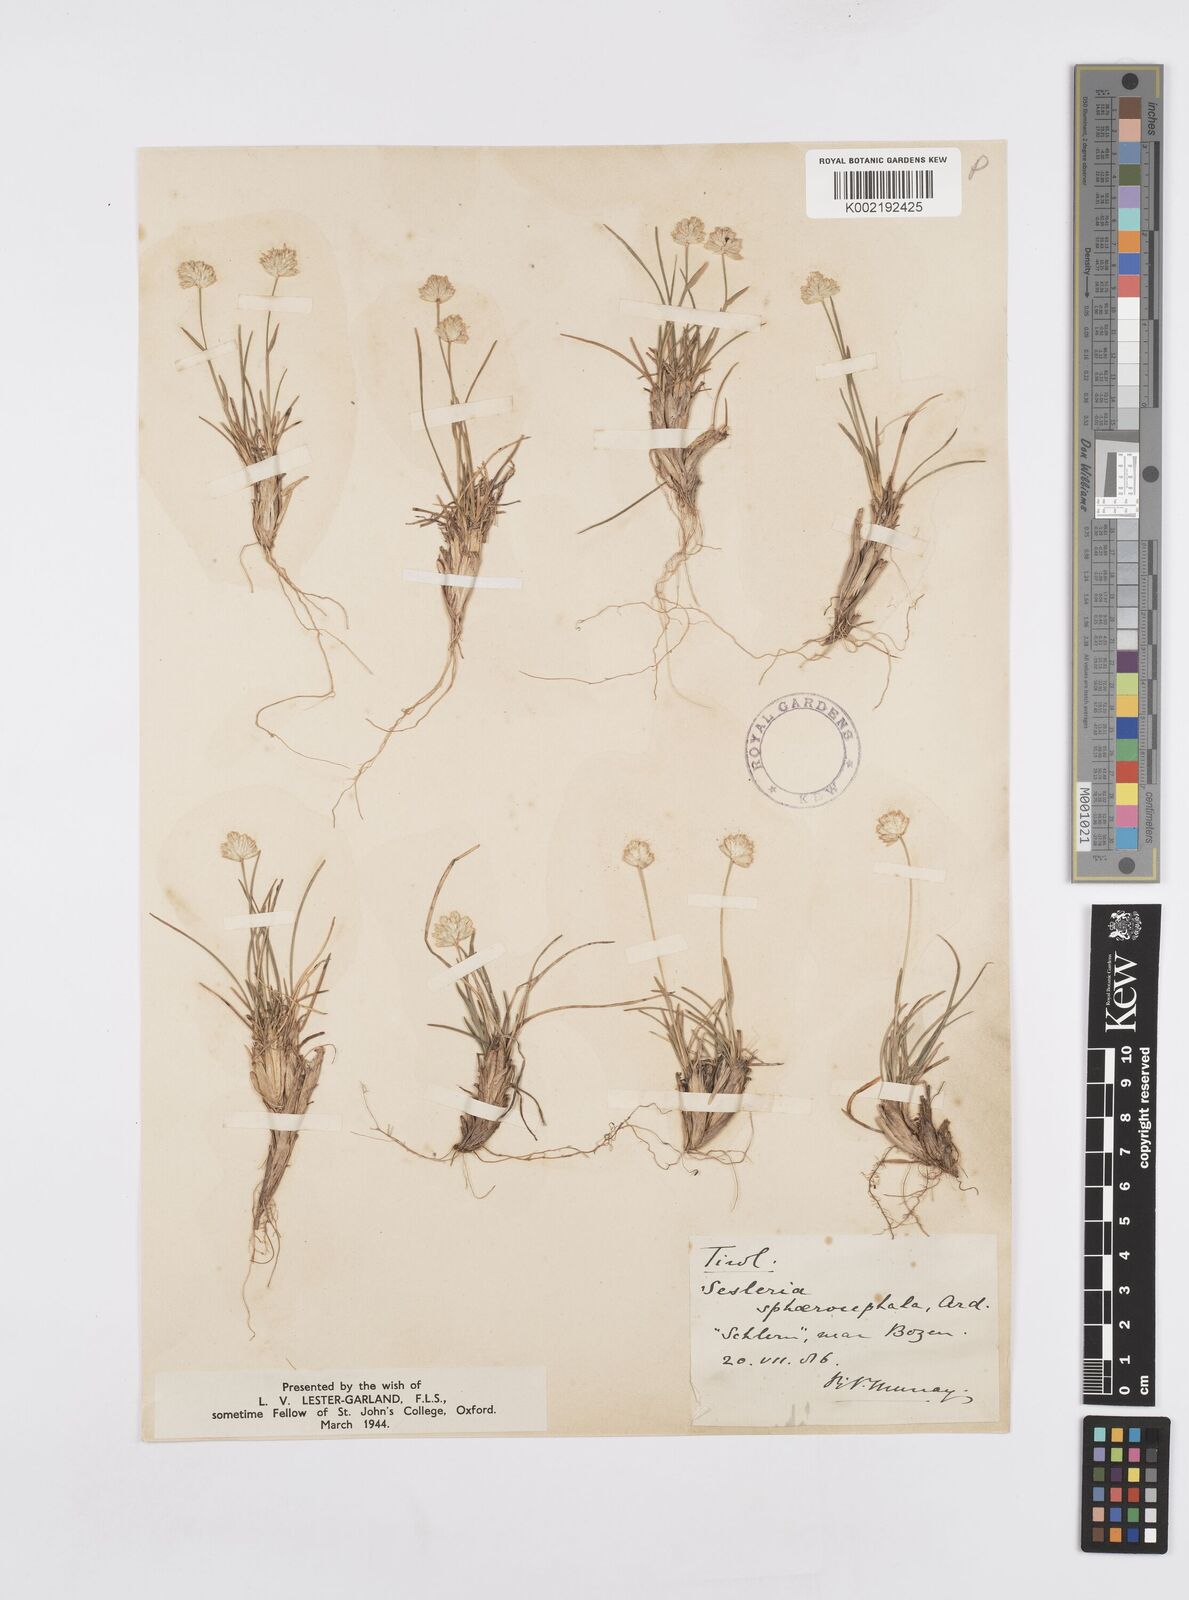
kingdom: Plantae
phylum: Tracheophyta
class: Liliopsida
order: Poales
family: Poaceae
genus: Sesleriella
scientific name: Sesleriella sphaerocephala
